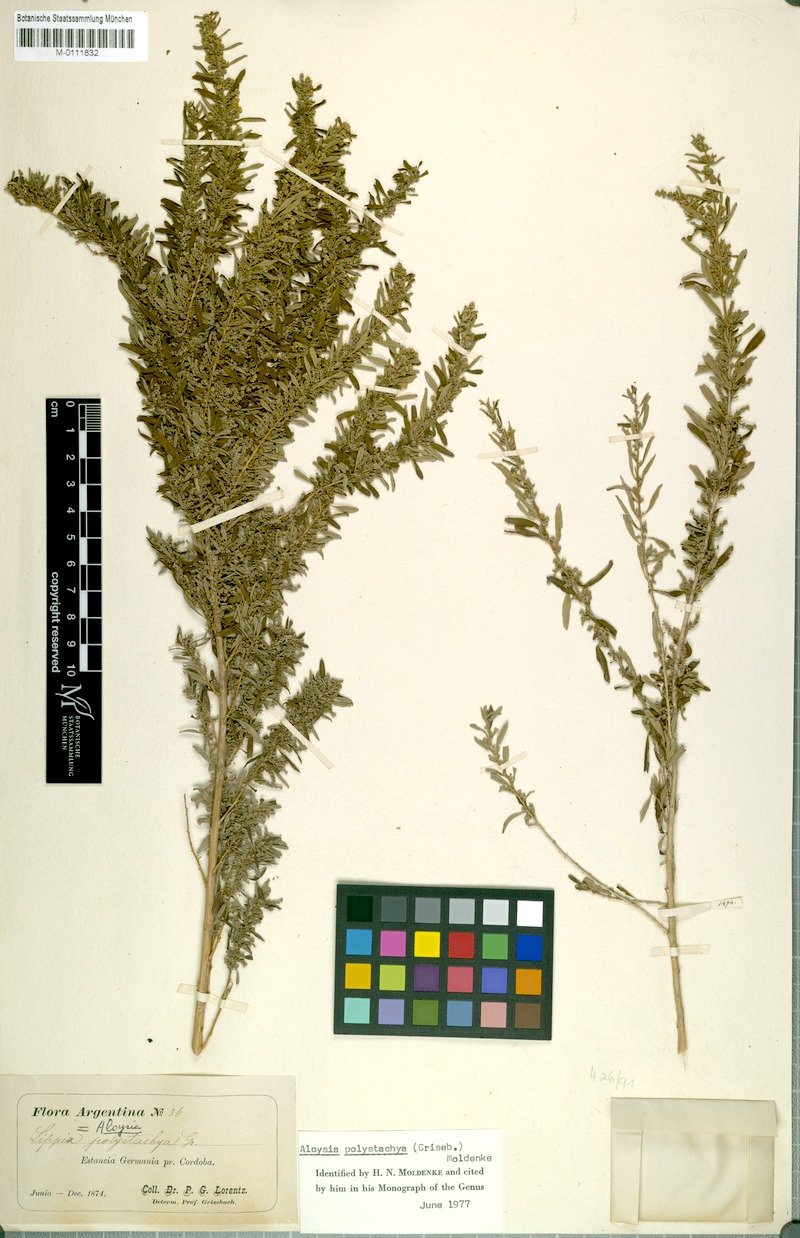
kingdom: Plantae
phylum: Tracheophyta
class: Magnoliopsida
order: Lamiales
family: Verbenaceae
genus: Aloysia
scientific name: Aloysia polystachya
